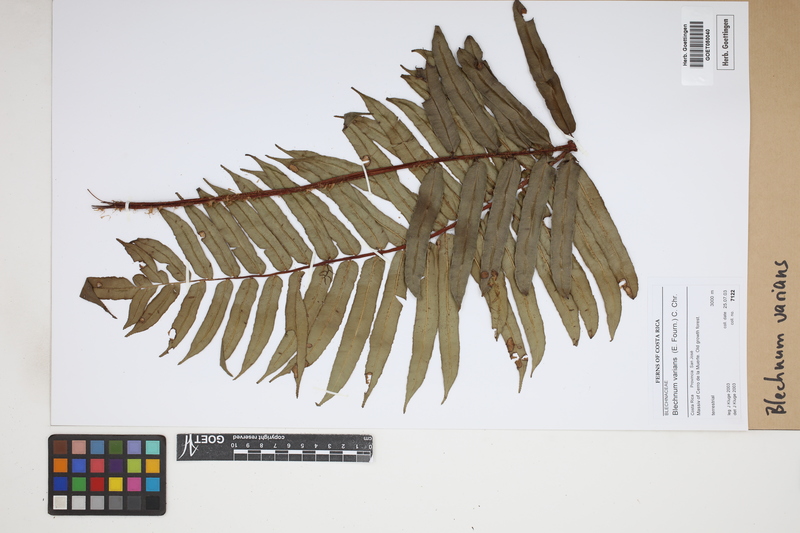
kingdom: Plantae
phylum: Tracheophyta
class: Polypodiopsida
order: Polypodiales
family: Blechnaceae
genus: Parablechnum
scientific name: Parablechnum schiedeanum
